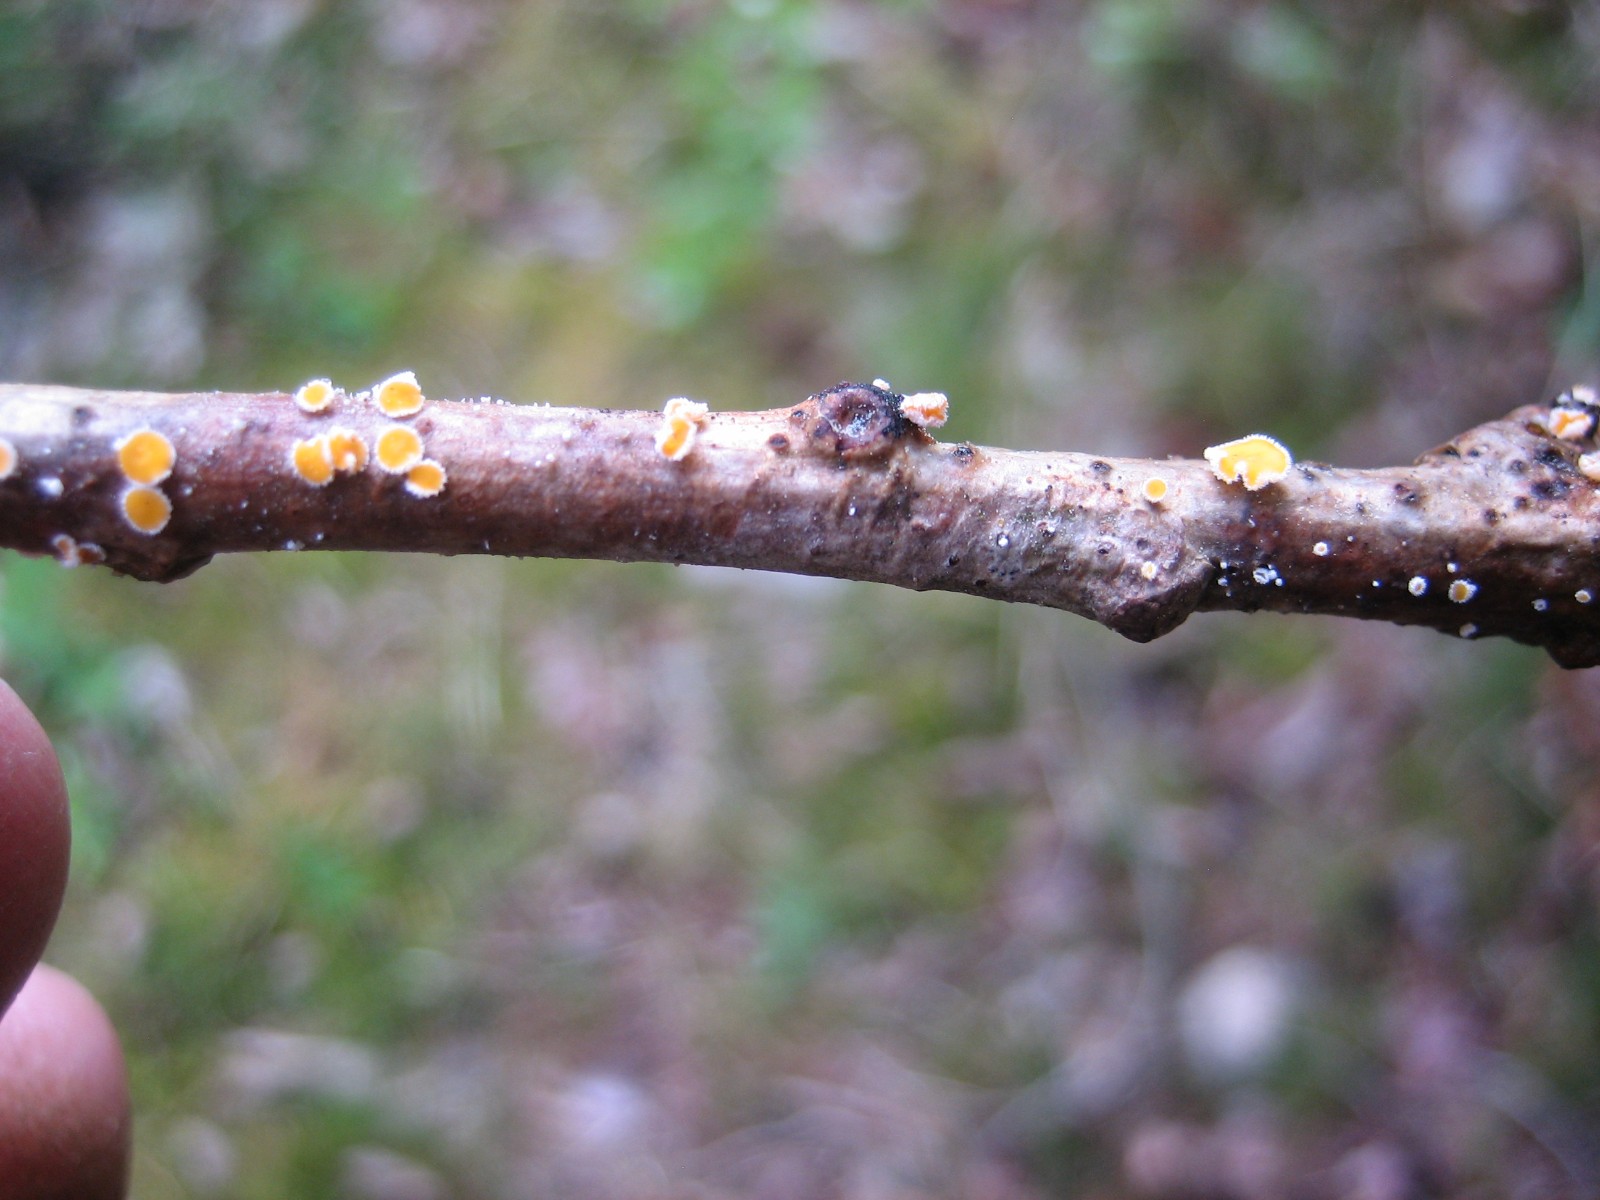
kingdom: Fungi
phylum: Ascomycota
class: Leotiomycetes
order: Helotiales
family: Lachnaceae
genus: Capitotricha
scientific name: Capitotricha bicolor
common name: prægtig frynseskive
